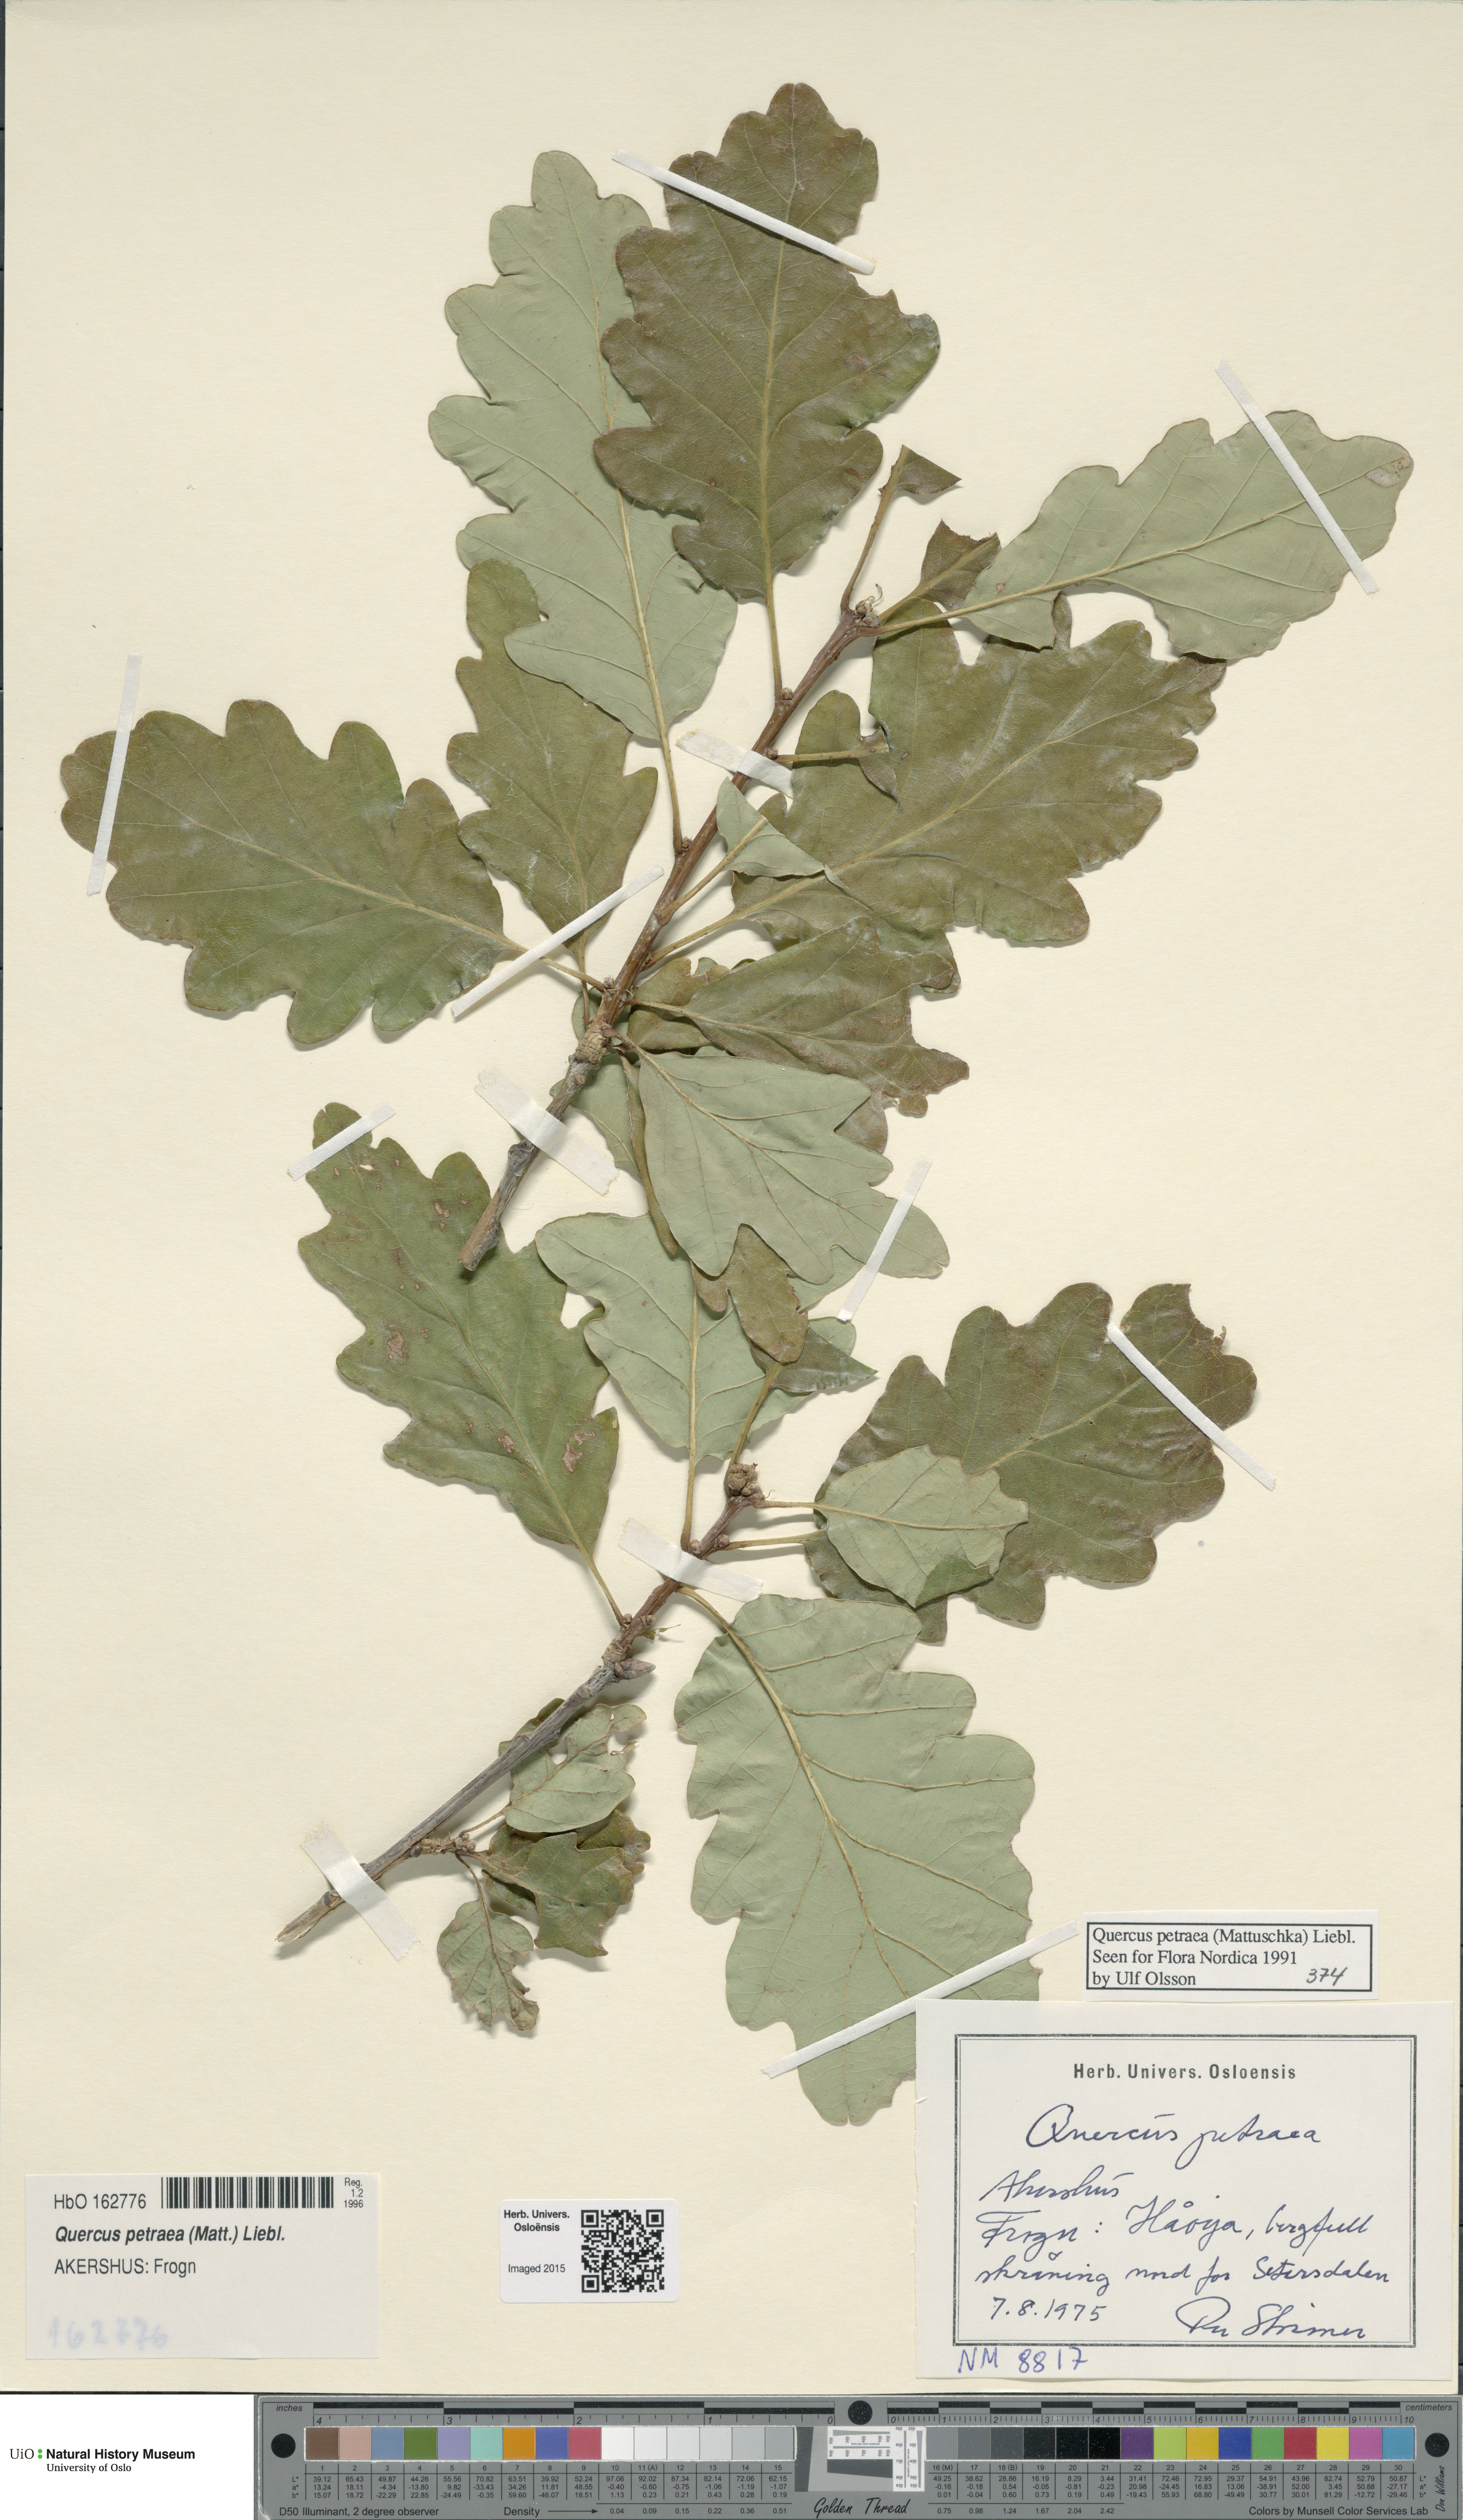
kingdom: Plantae
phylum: Tracheophyta
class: Magnoliopsida
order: Fagales
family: Fagaceae
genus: Quercus
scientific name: Quercus petraea
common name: Sessile oak
